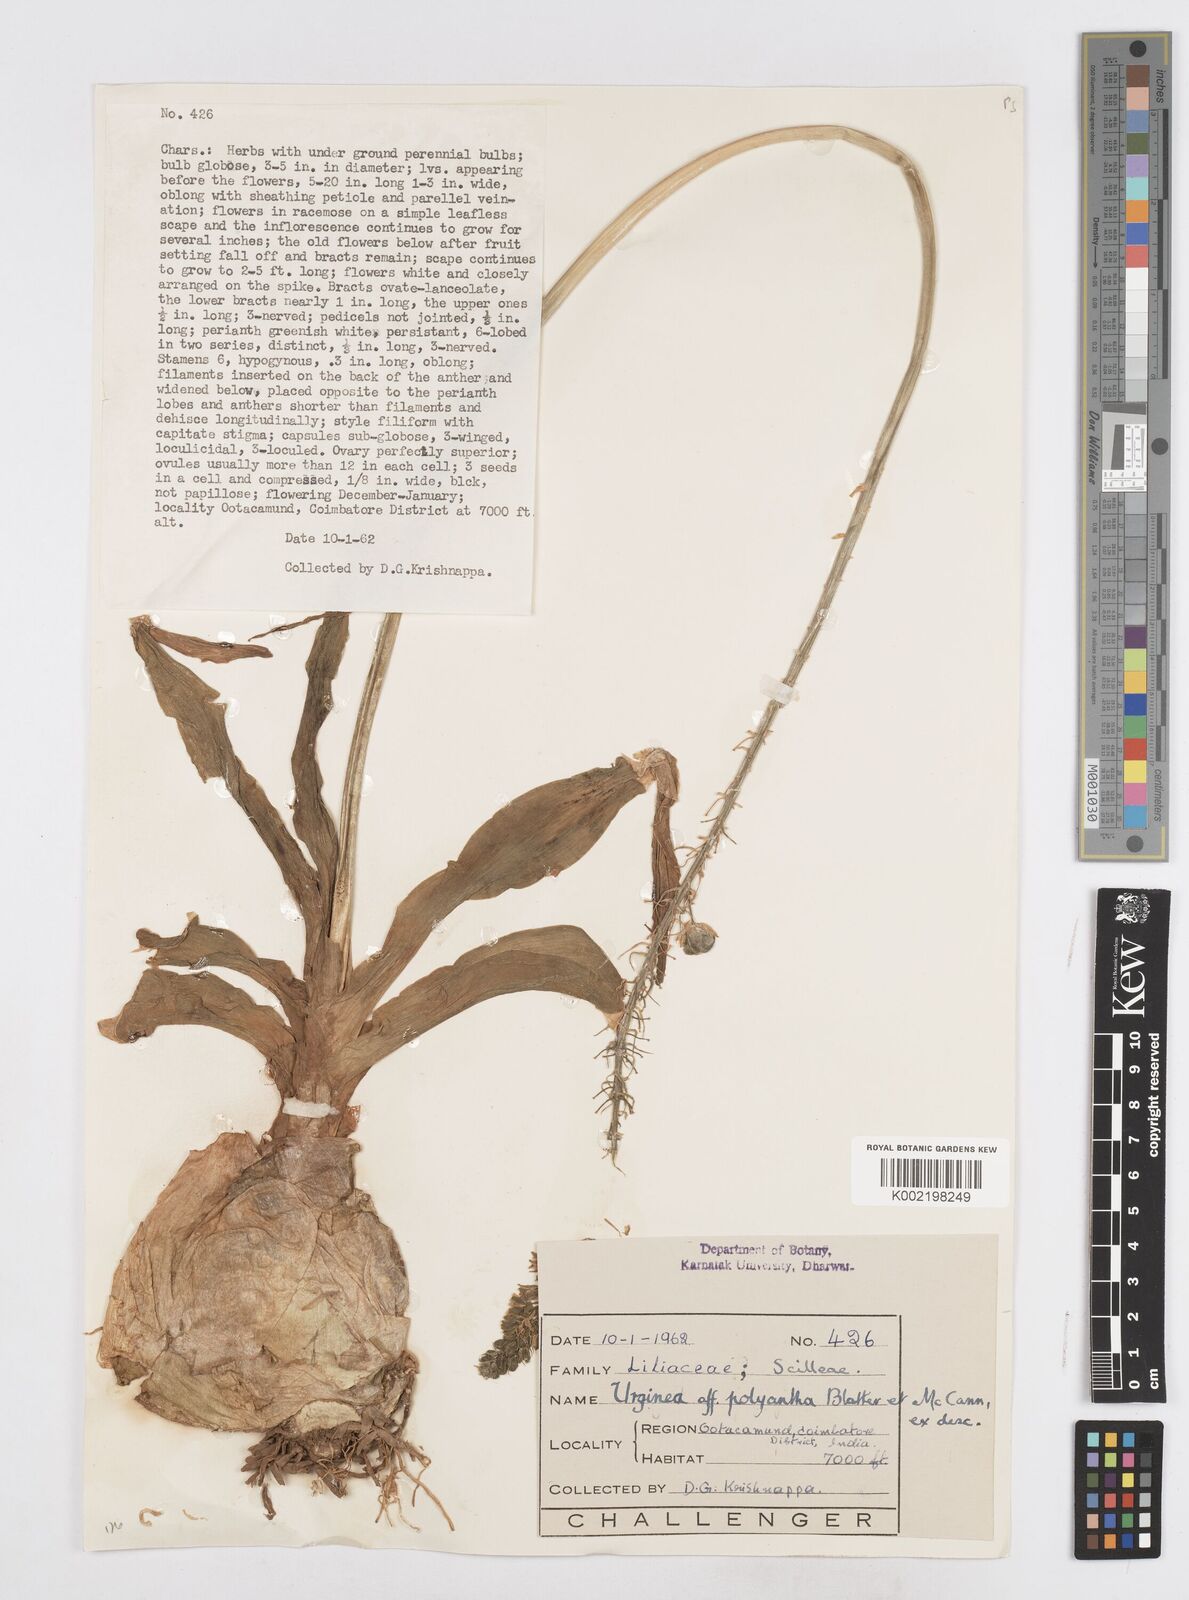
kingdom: Plantae
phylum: Tracheophyta
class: Liliopsida
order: Asparagales
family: Asparagaceae
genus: Drimia
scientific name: Drimia polyantha
